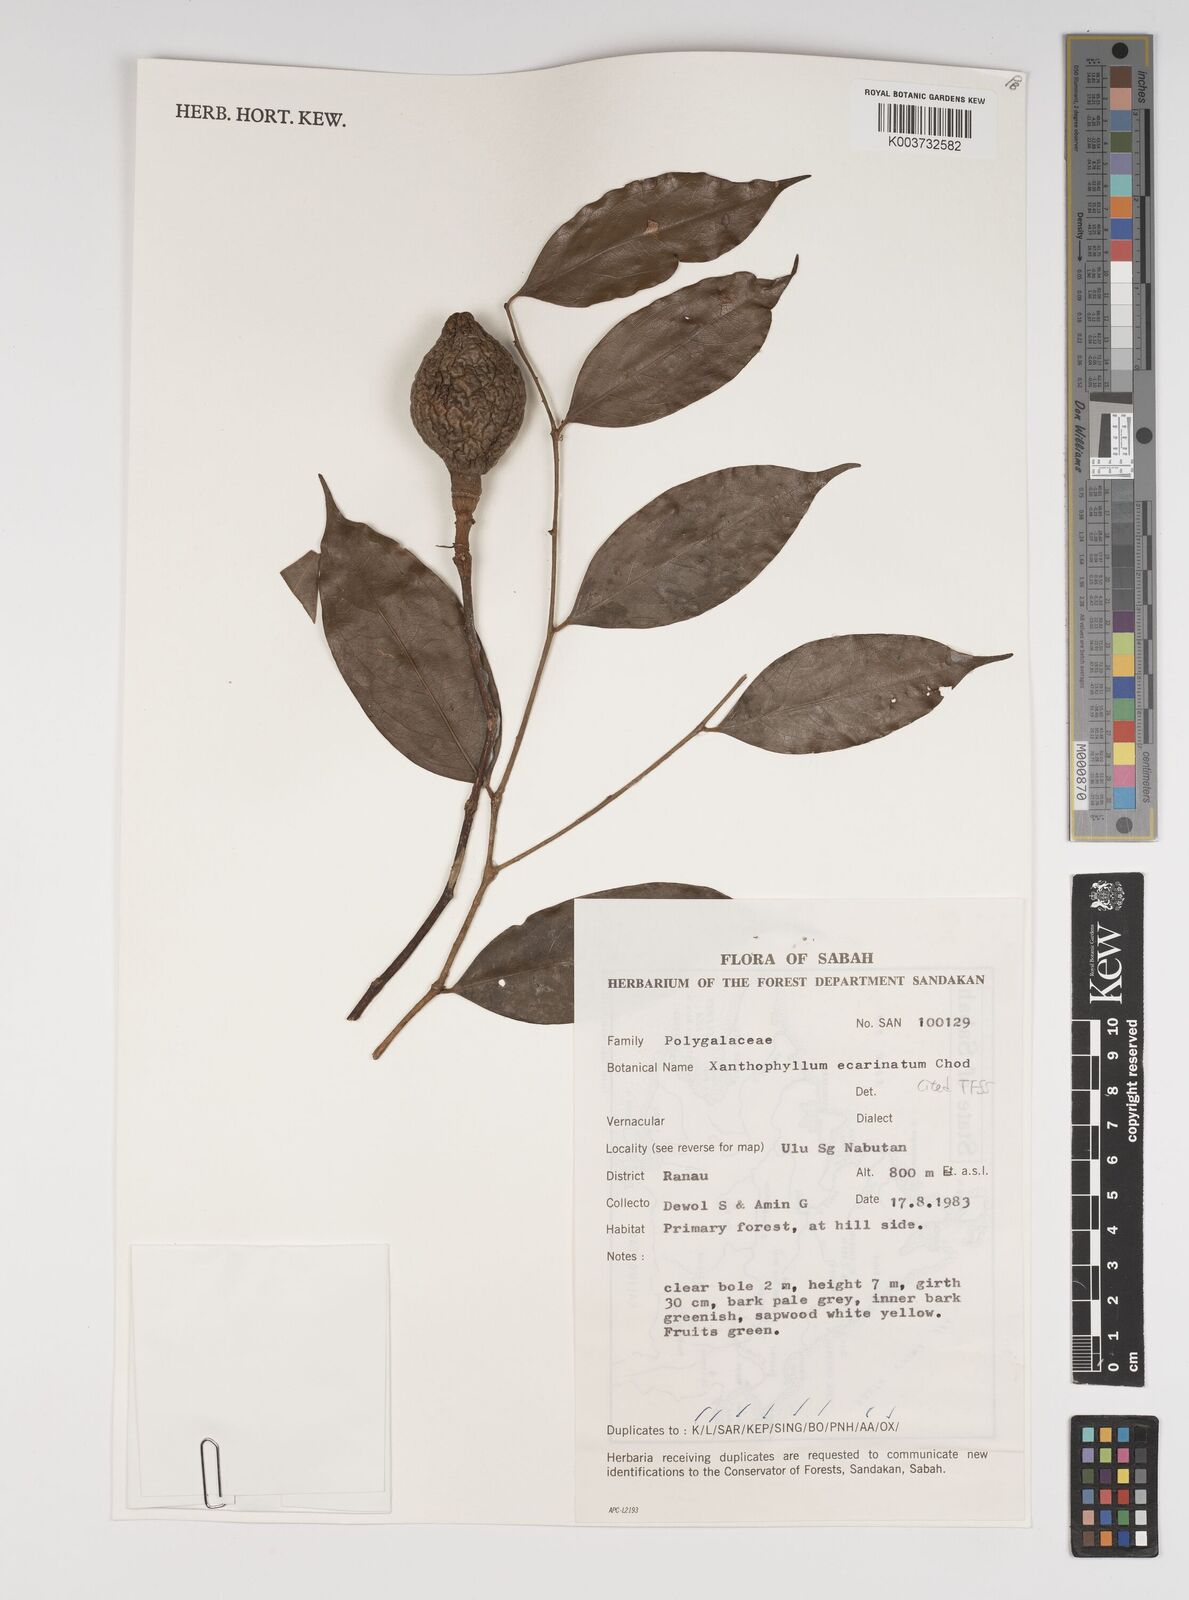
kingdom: Plantae
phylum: Tracheophyta
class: Magnoliopsida
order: Fabales
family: Polygalaceae
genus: Xanthophyllum
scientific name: Xanthophyllum ecarinatum
